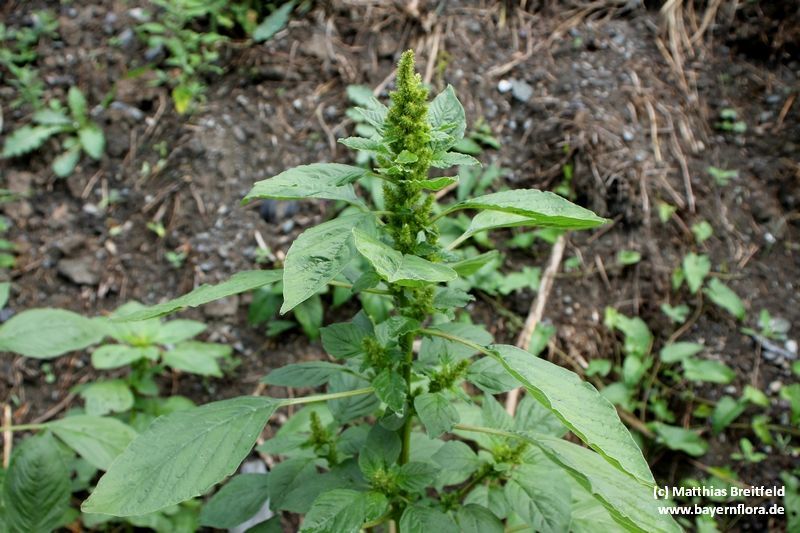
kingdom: Plantae
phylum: Tracheophyta
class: Magnoliopsida
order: Caryophyllales
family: Amaranthaceae
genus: Amaranthus
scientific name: Amaranthus powellii
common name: Powell's amaranth
